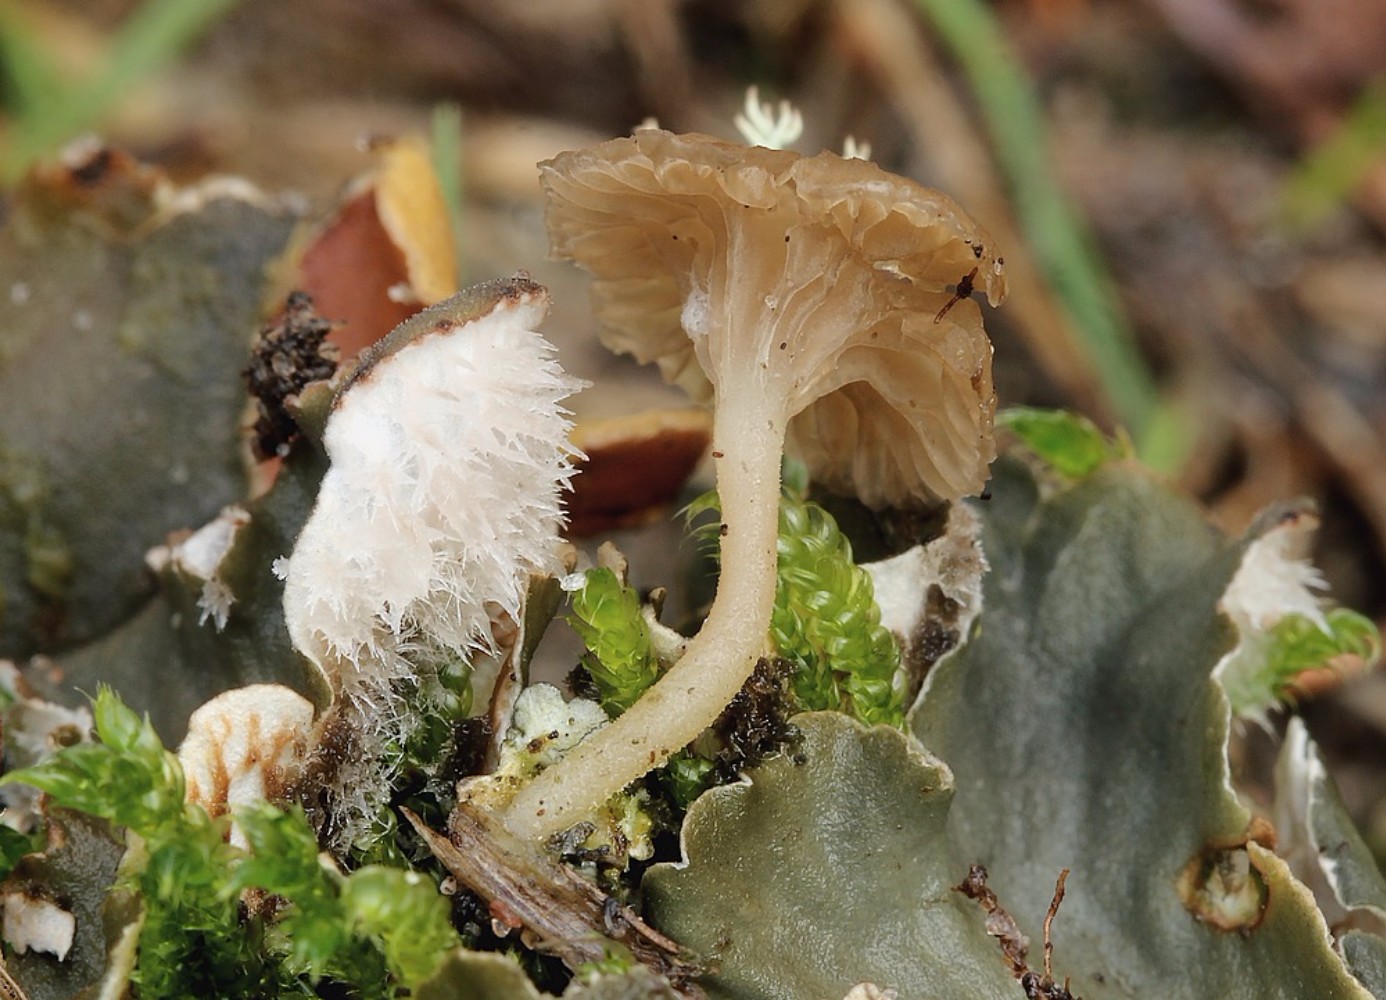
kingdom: Fungi
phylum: Basidiomycota
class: Agaricomycetes
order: Agaricales
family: Hygrophoraceae
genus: Arrhenia
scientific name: Arrhenia peltigerina
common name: skjoldlav-fontænehat
